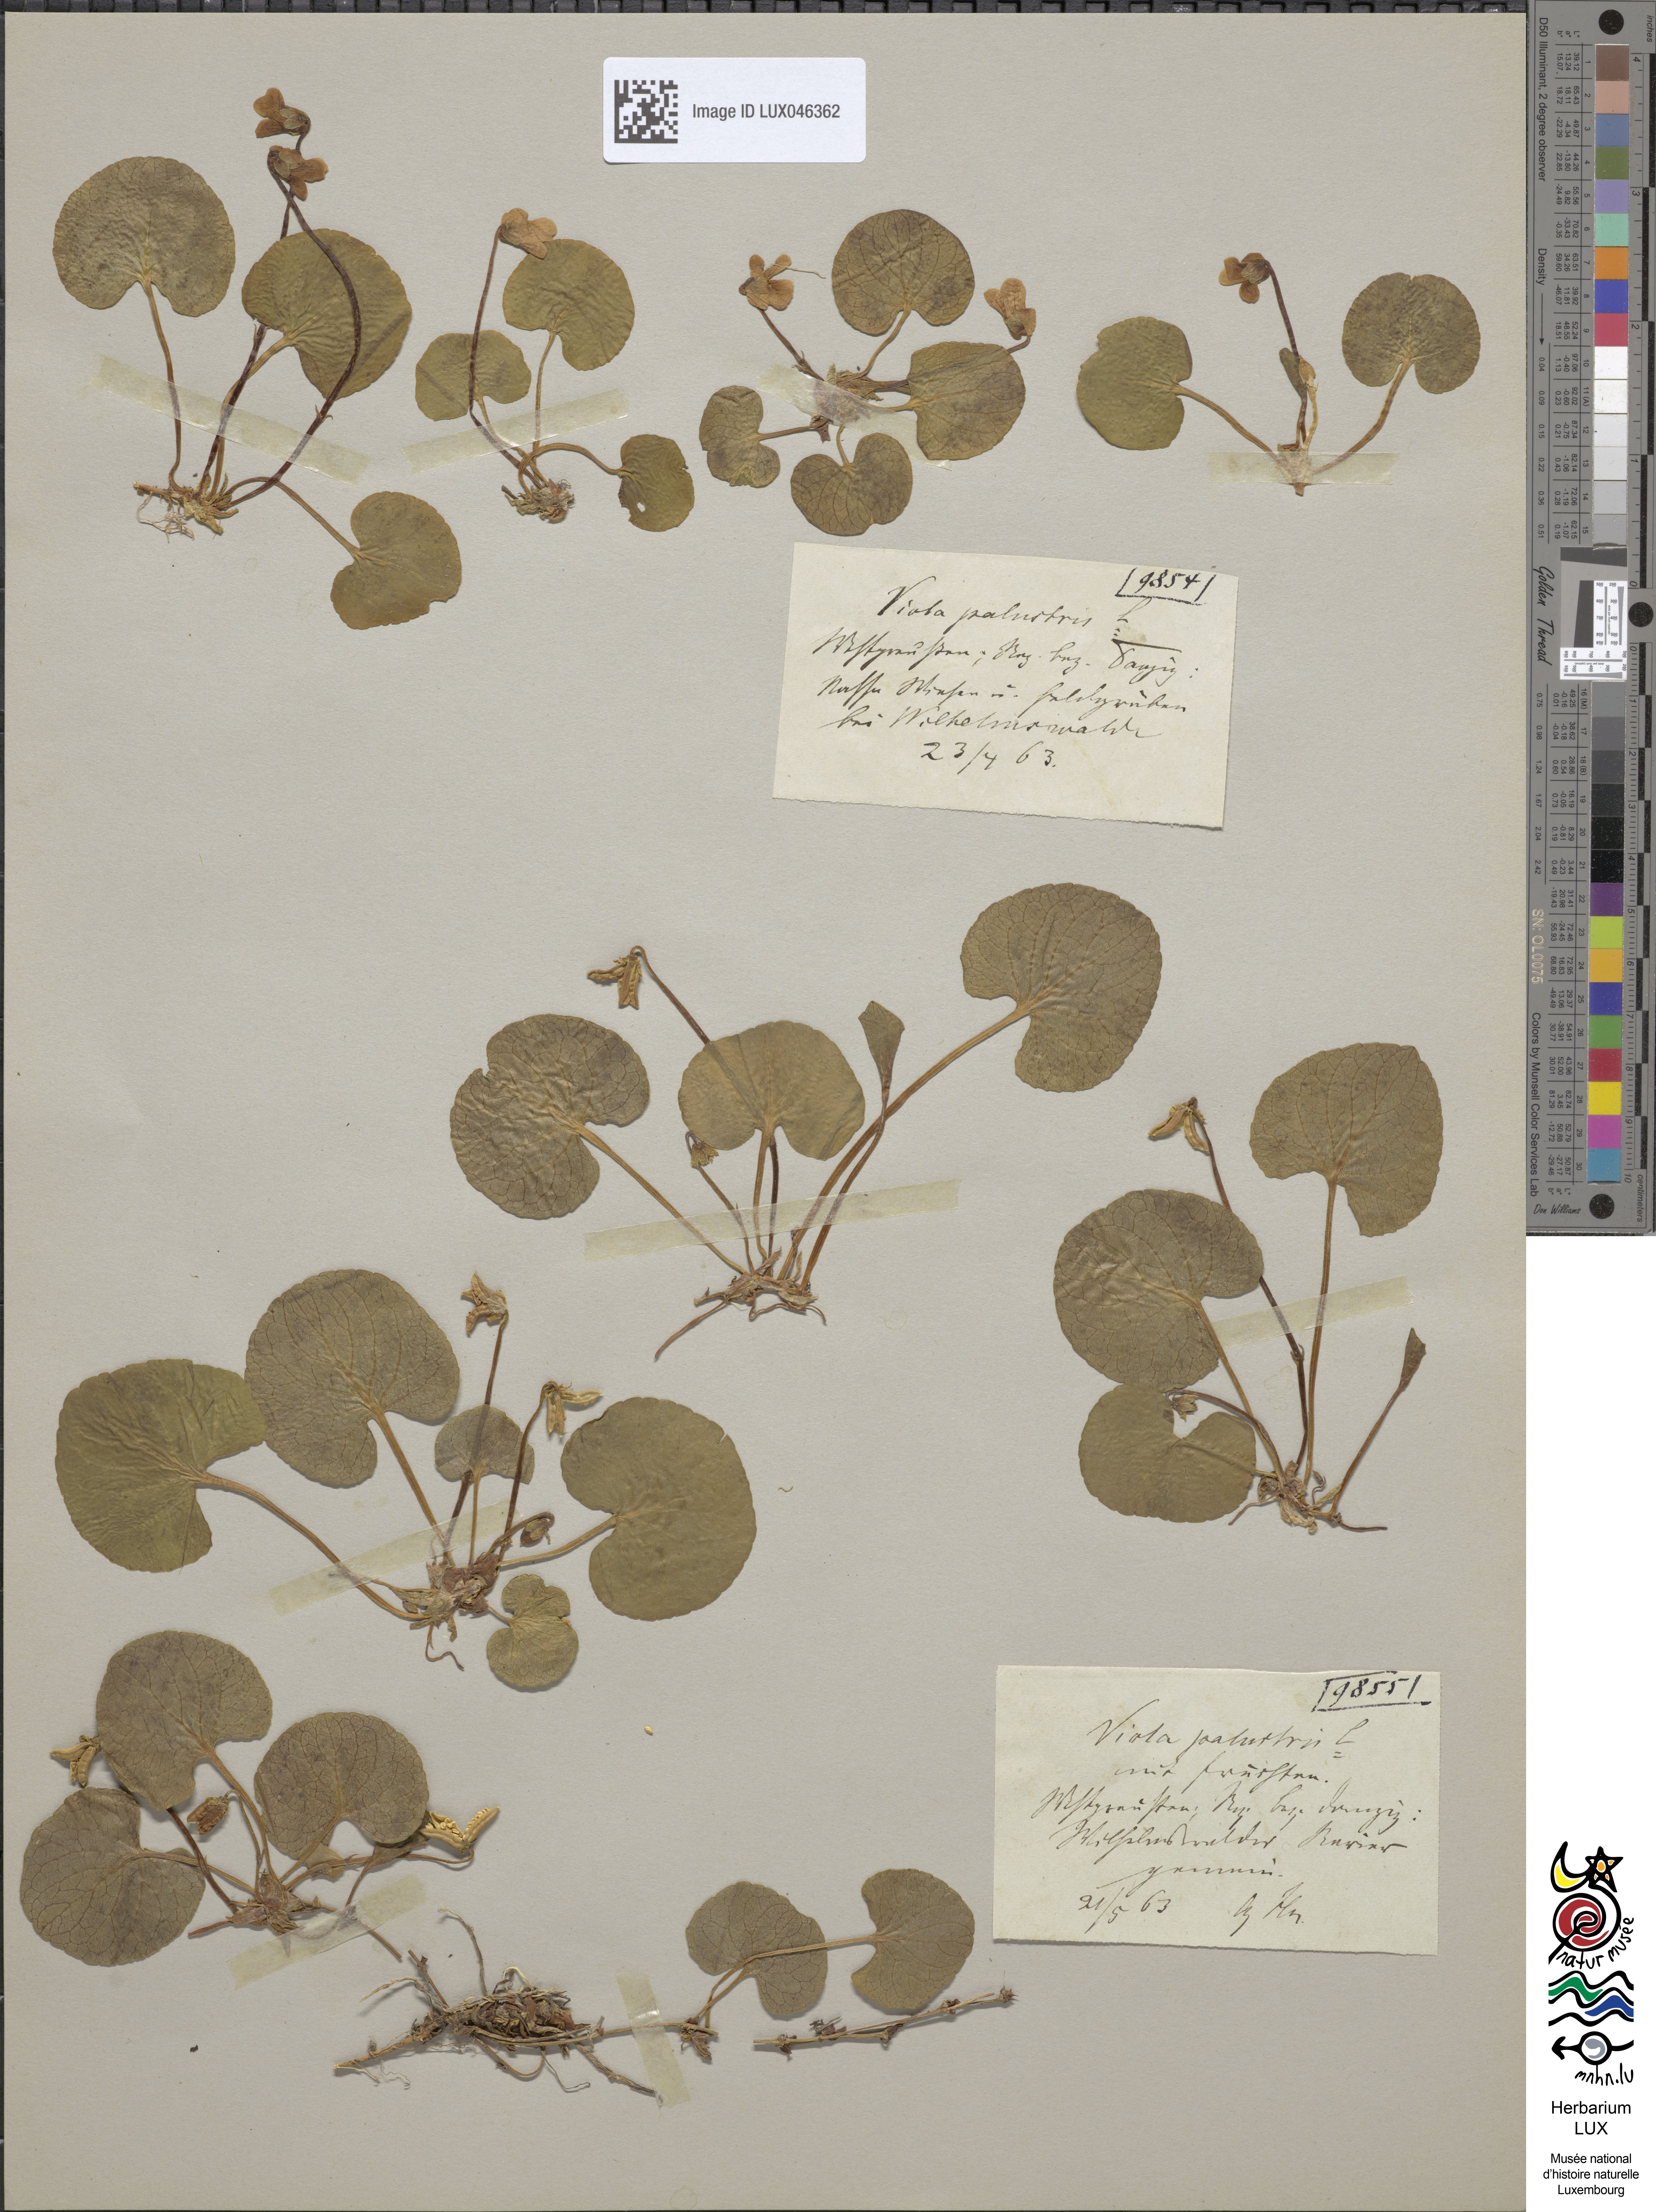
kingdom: Plantae
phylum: Tracheophyta
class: Magnoliopsida
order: Malpighiales
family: Violaceae
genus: Viola
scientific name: Viola palustris
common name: Marsh violet
